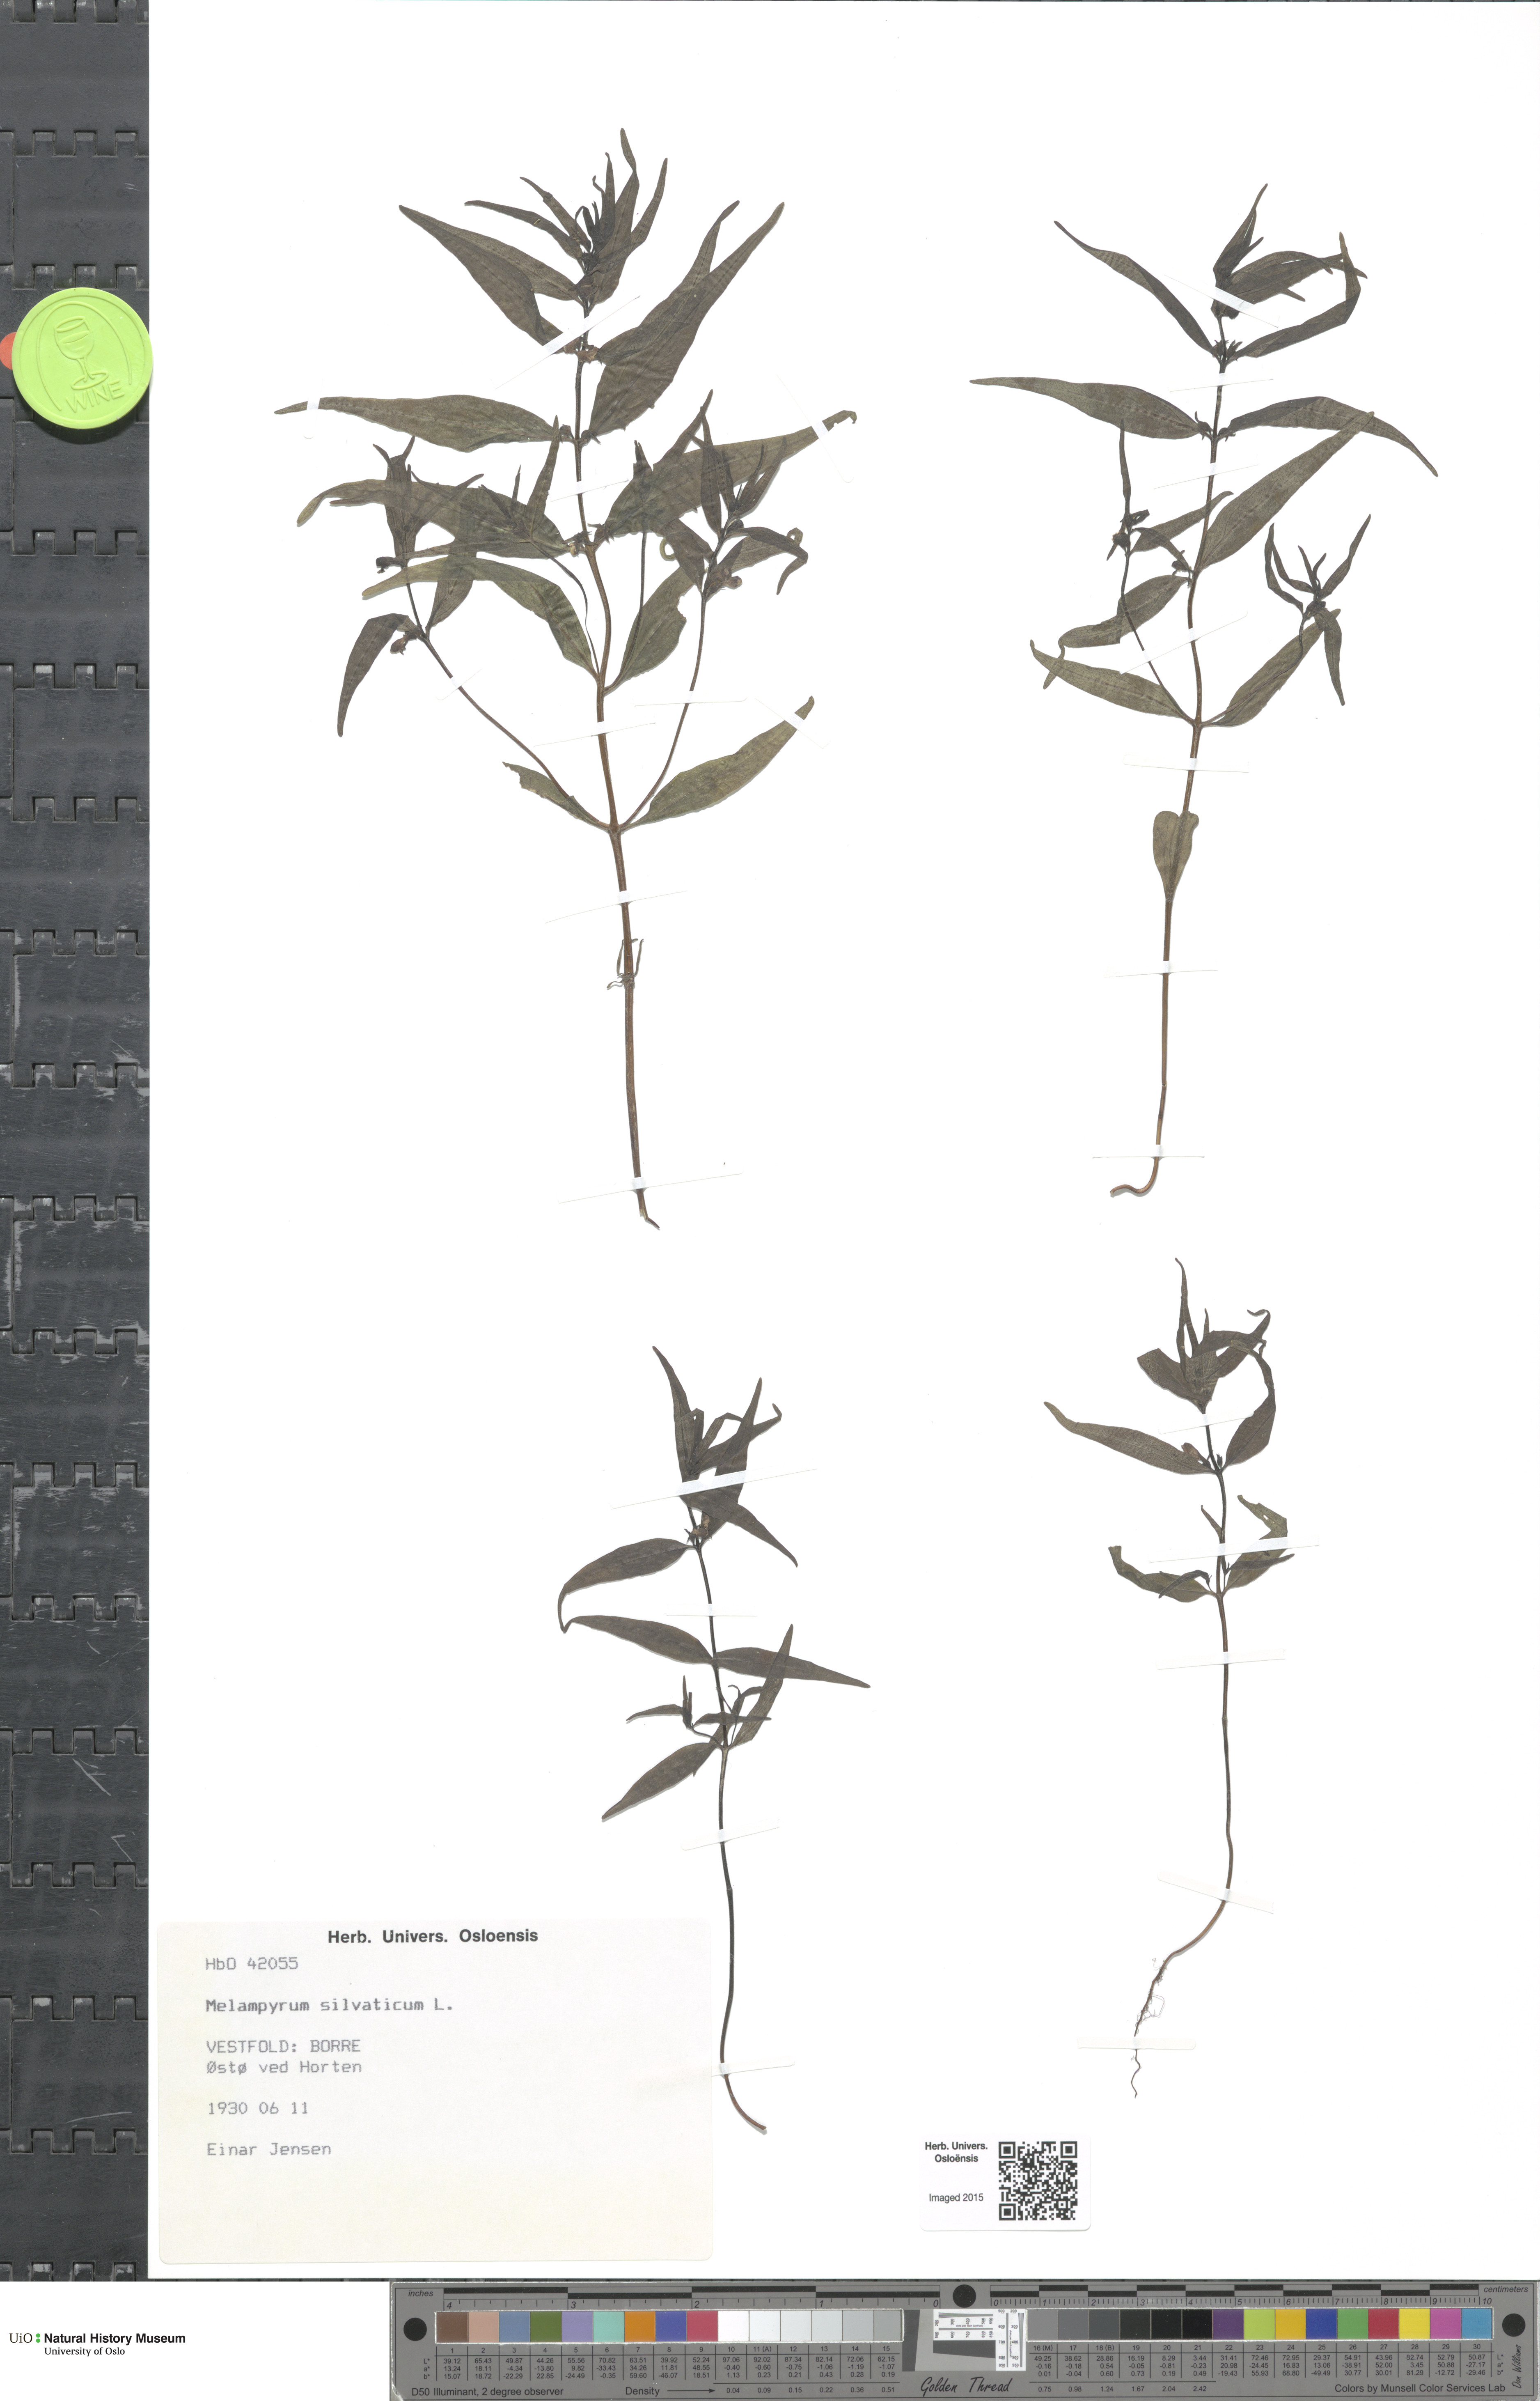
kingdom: Plantae
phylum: Tracheophyta
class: Magnoliopsida
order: Lamiales
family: Orobanchaceae
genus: Melampyrum
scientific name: Melampyrum sylvaticum
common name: Small cow-wheat
